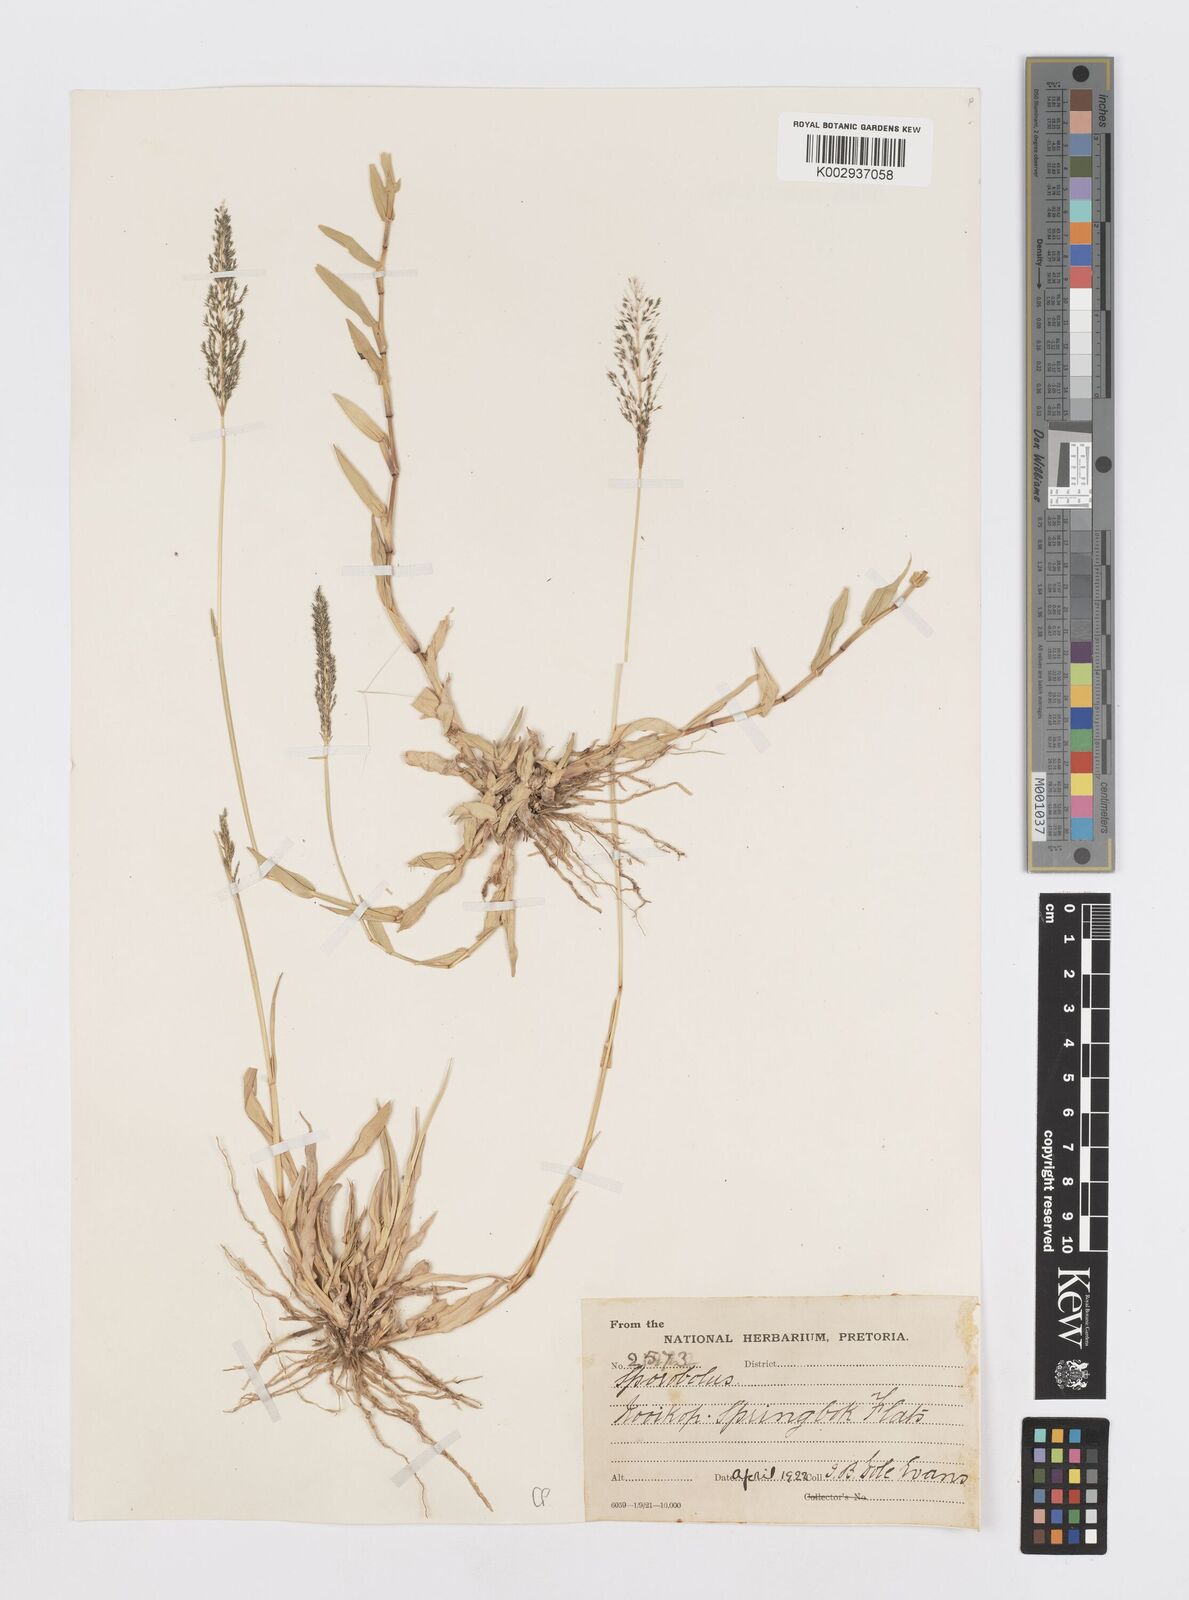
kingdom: Plantae
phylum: Tracheophyta
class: Liliopsida
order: Poales
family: Poaceae
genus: Sporobolus
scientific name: Sporobolus
